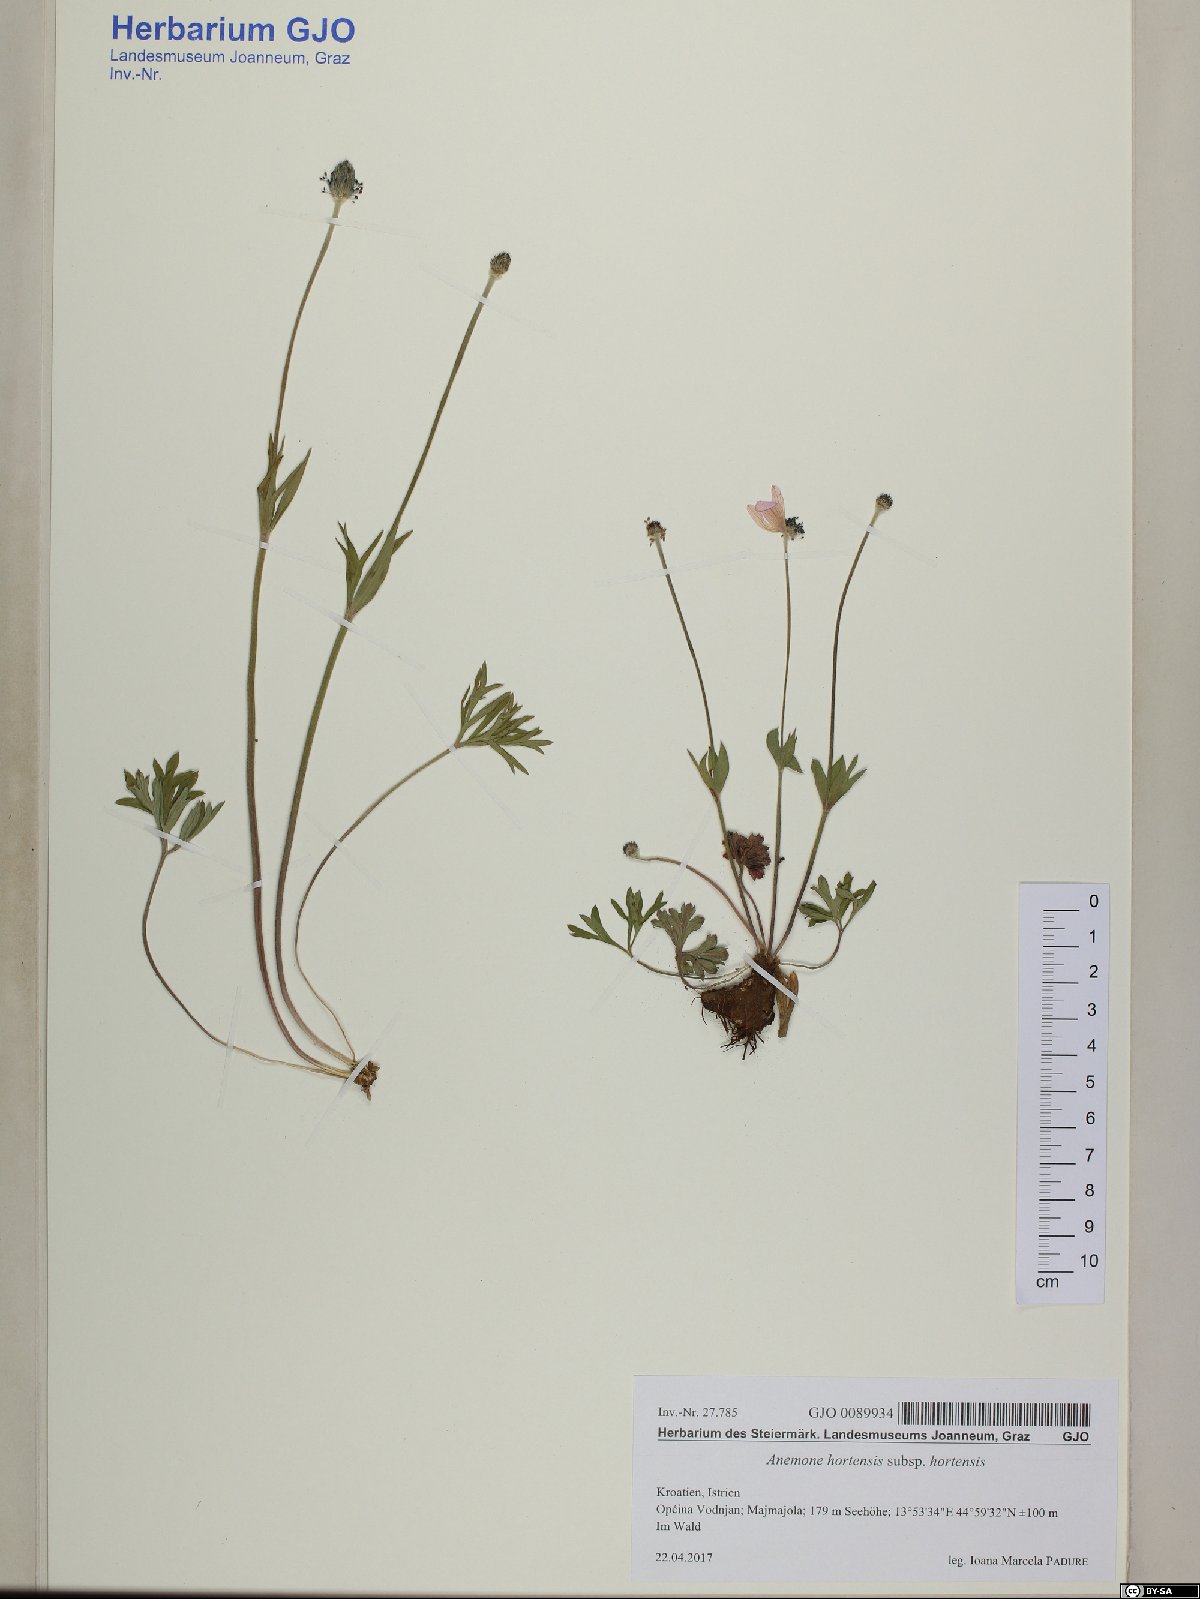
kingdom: Plantae
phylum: Tracheophyta
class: Magnoliopsida
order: Ranunculales
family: Ranunculaceae
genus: Anemone
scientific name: Anemone hortensis
